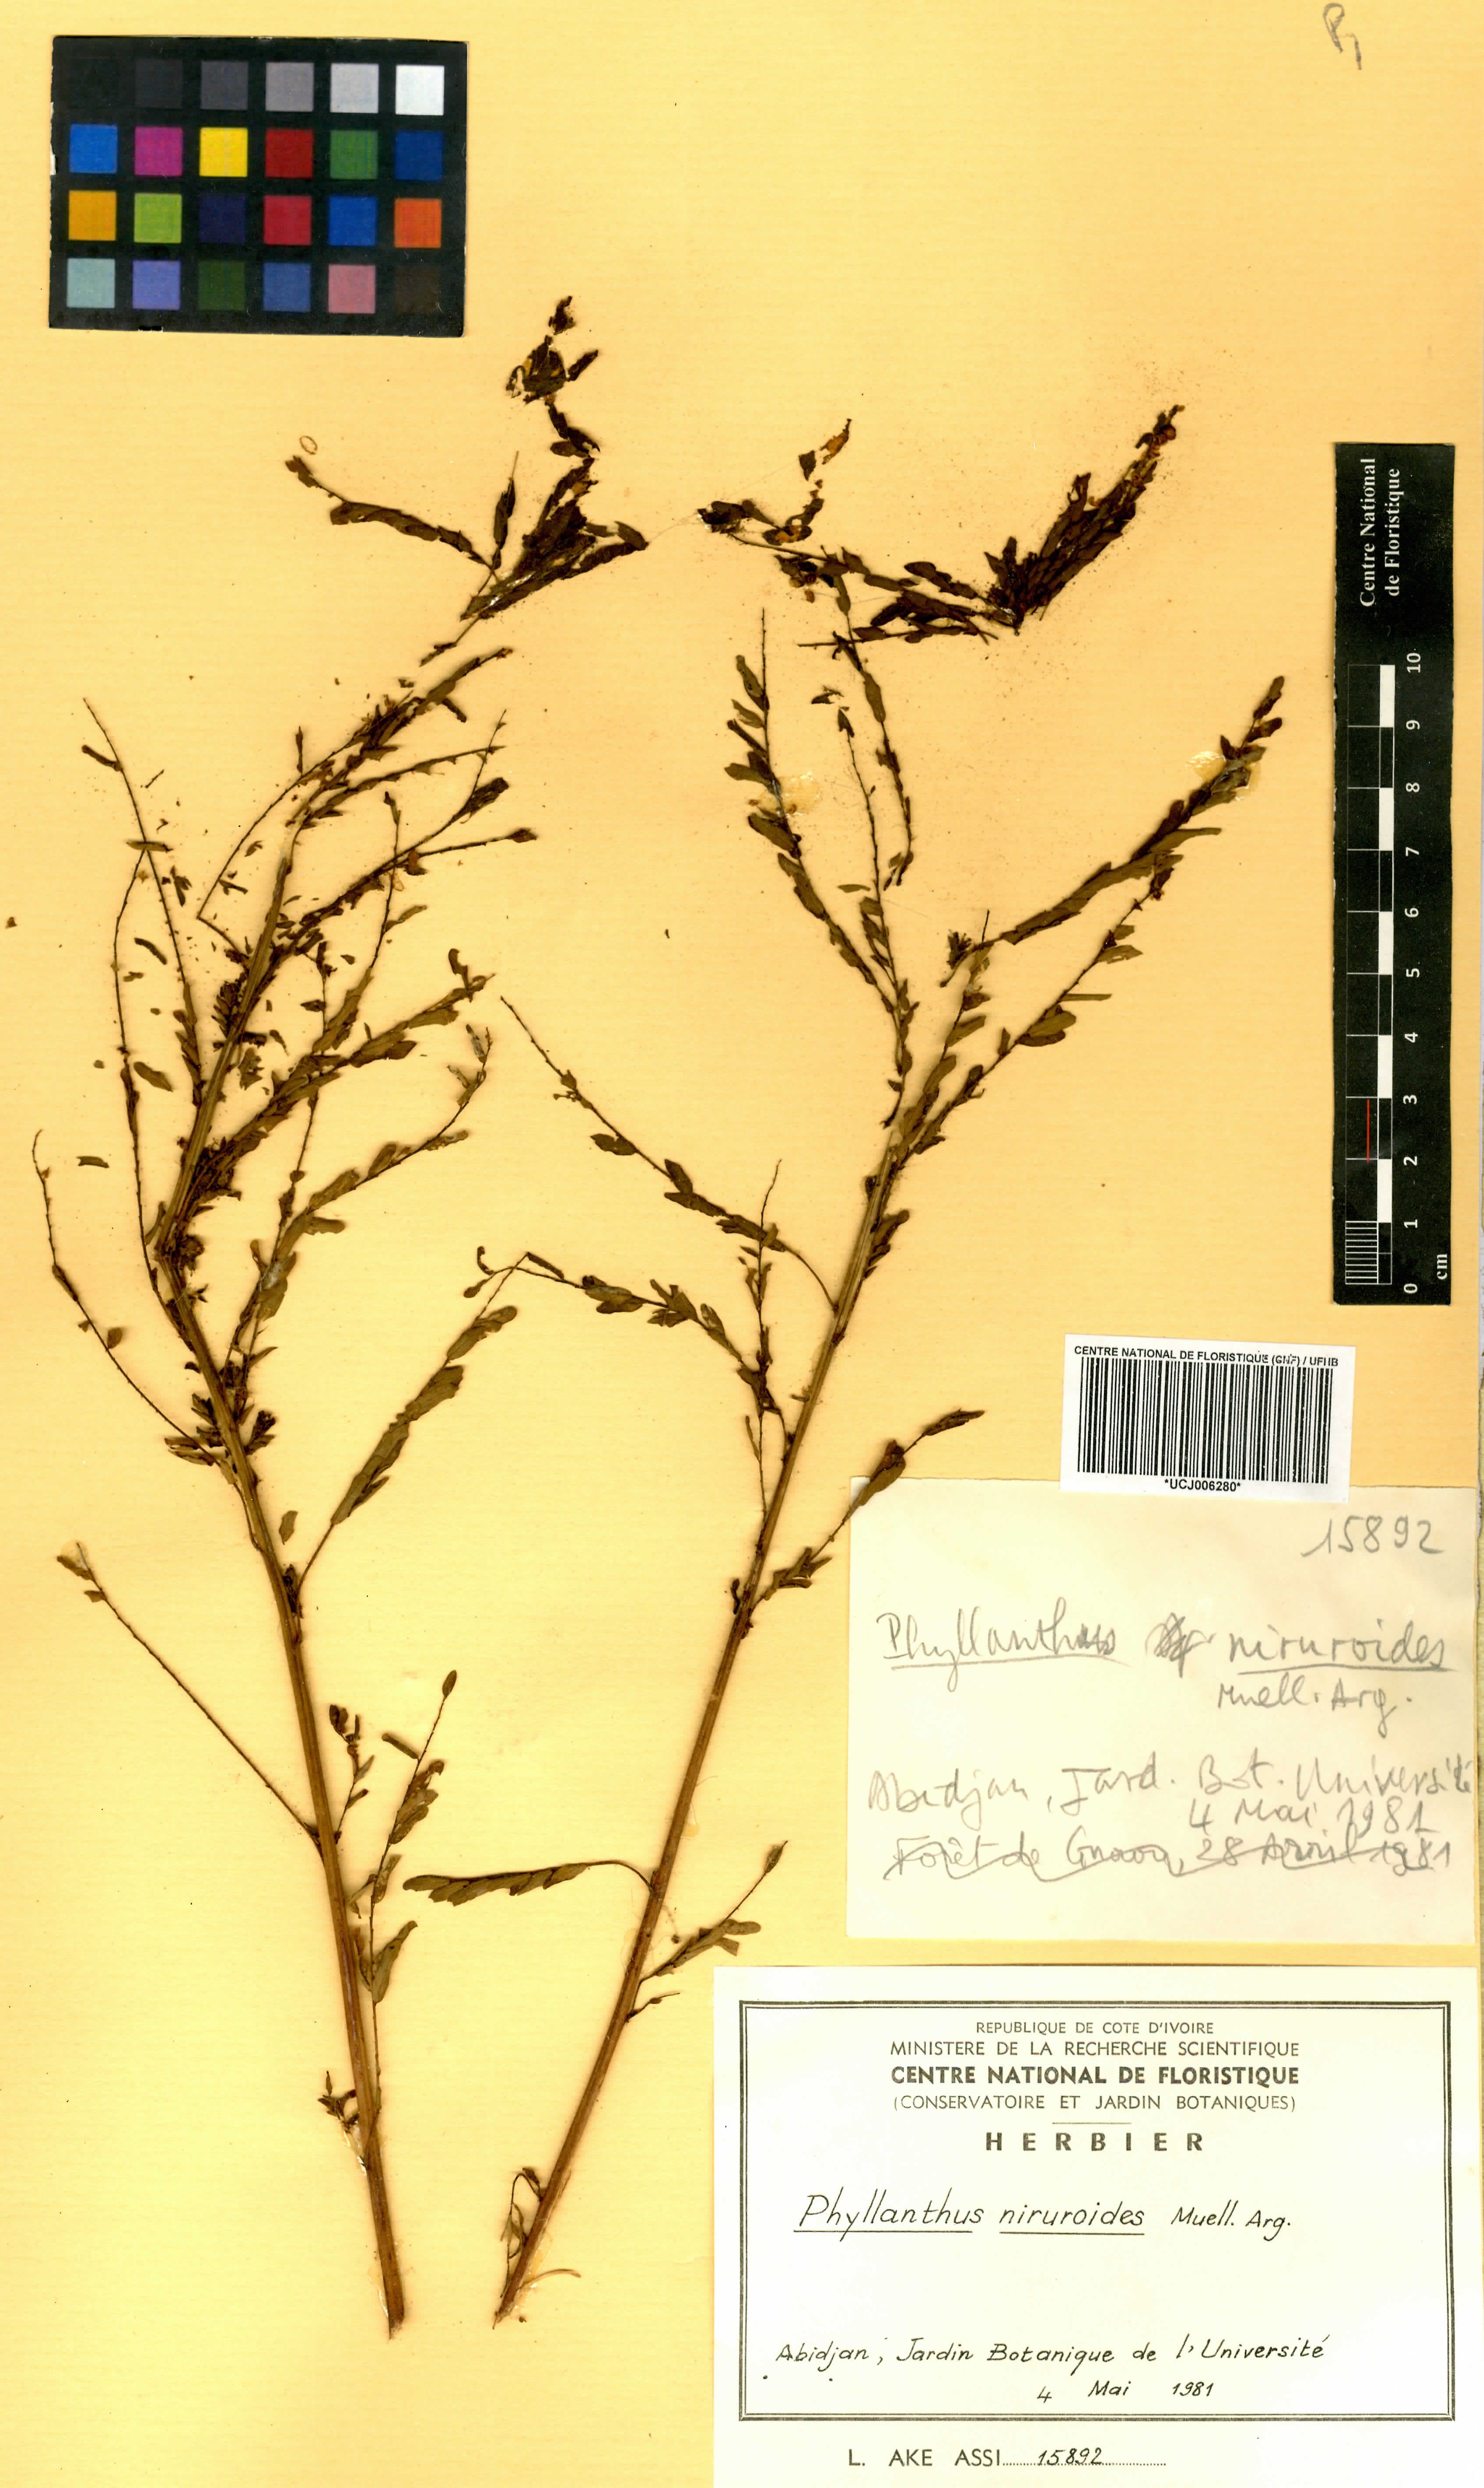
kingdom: Plantae
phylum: Tracheophyta
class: Magnoliopsida
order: Malpighiales
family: Phyllanthaceae
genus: Phyllanthus
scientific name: Phyllanthus niruroides
